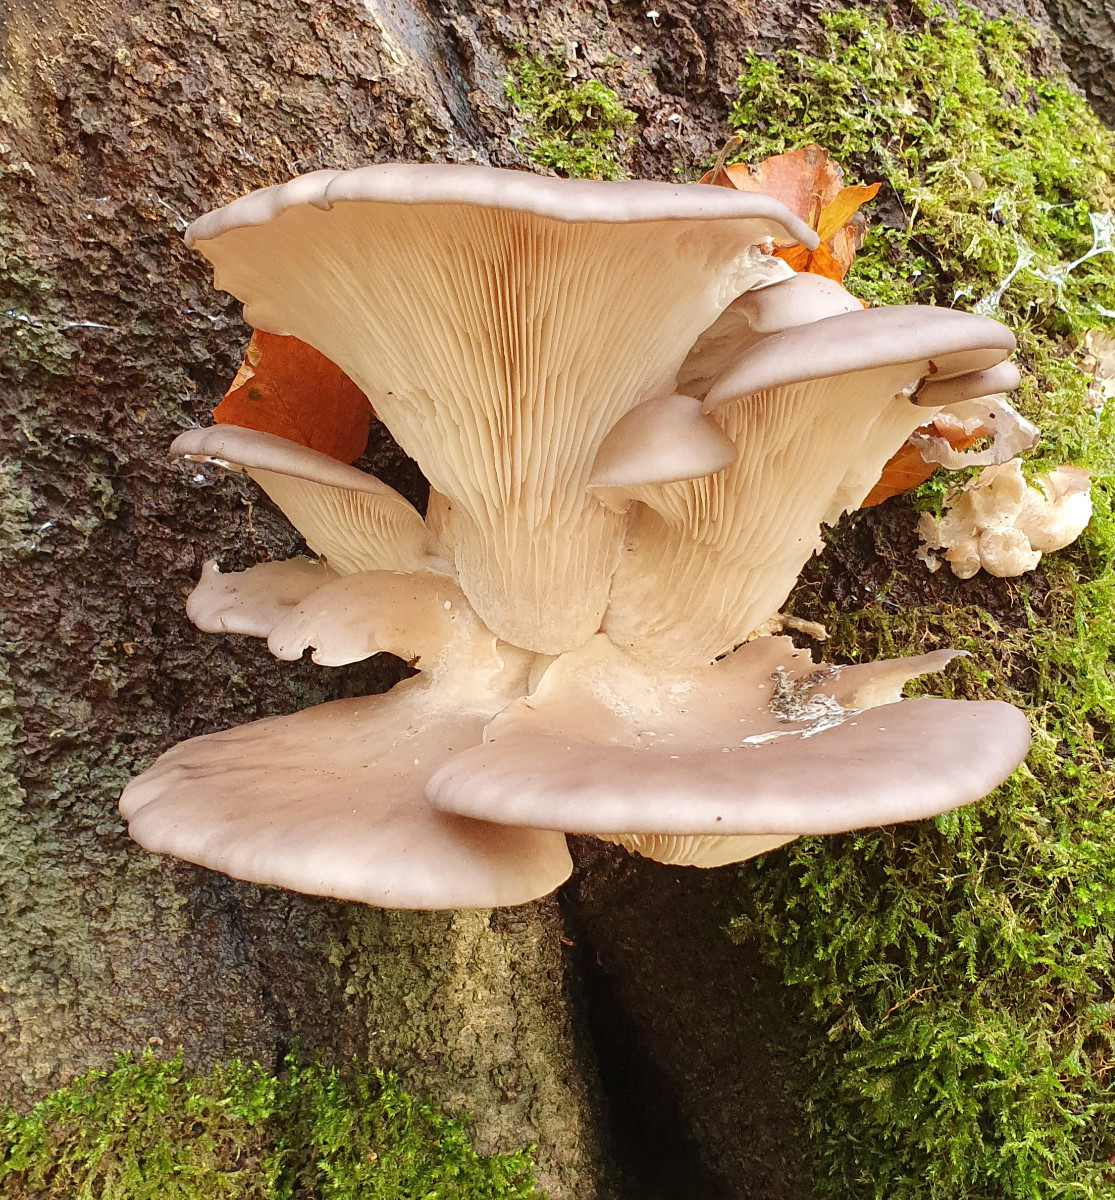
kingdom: Fungi
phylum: Basidiomycota
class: Agaricomycetes
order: Agaricales
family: Pleurotaceae
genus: Pleurotus
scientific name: Pleurotus ostreatus
